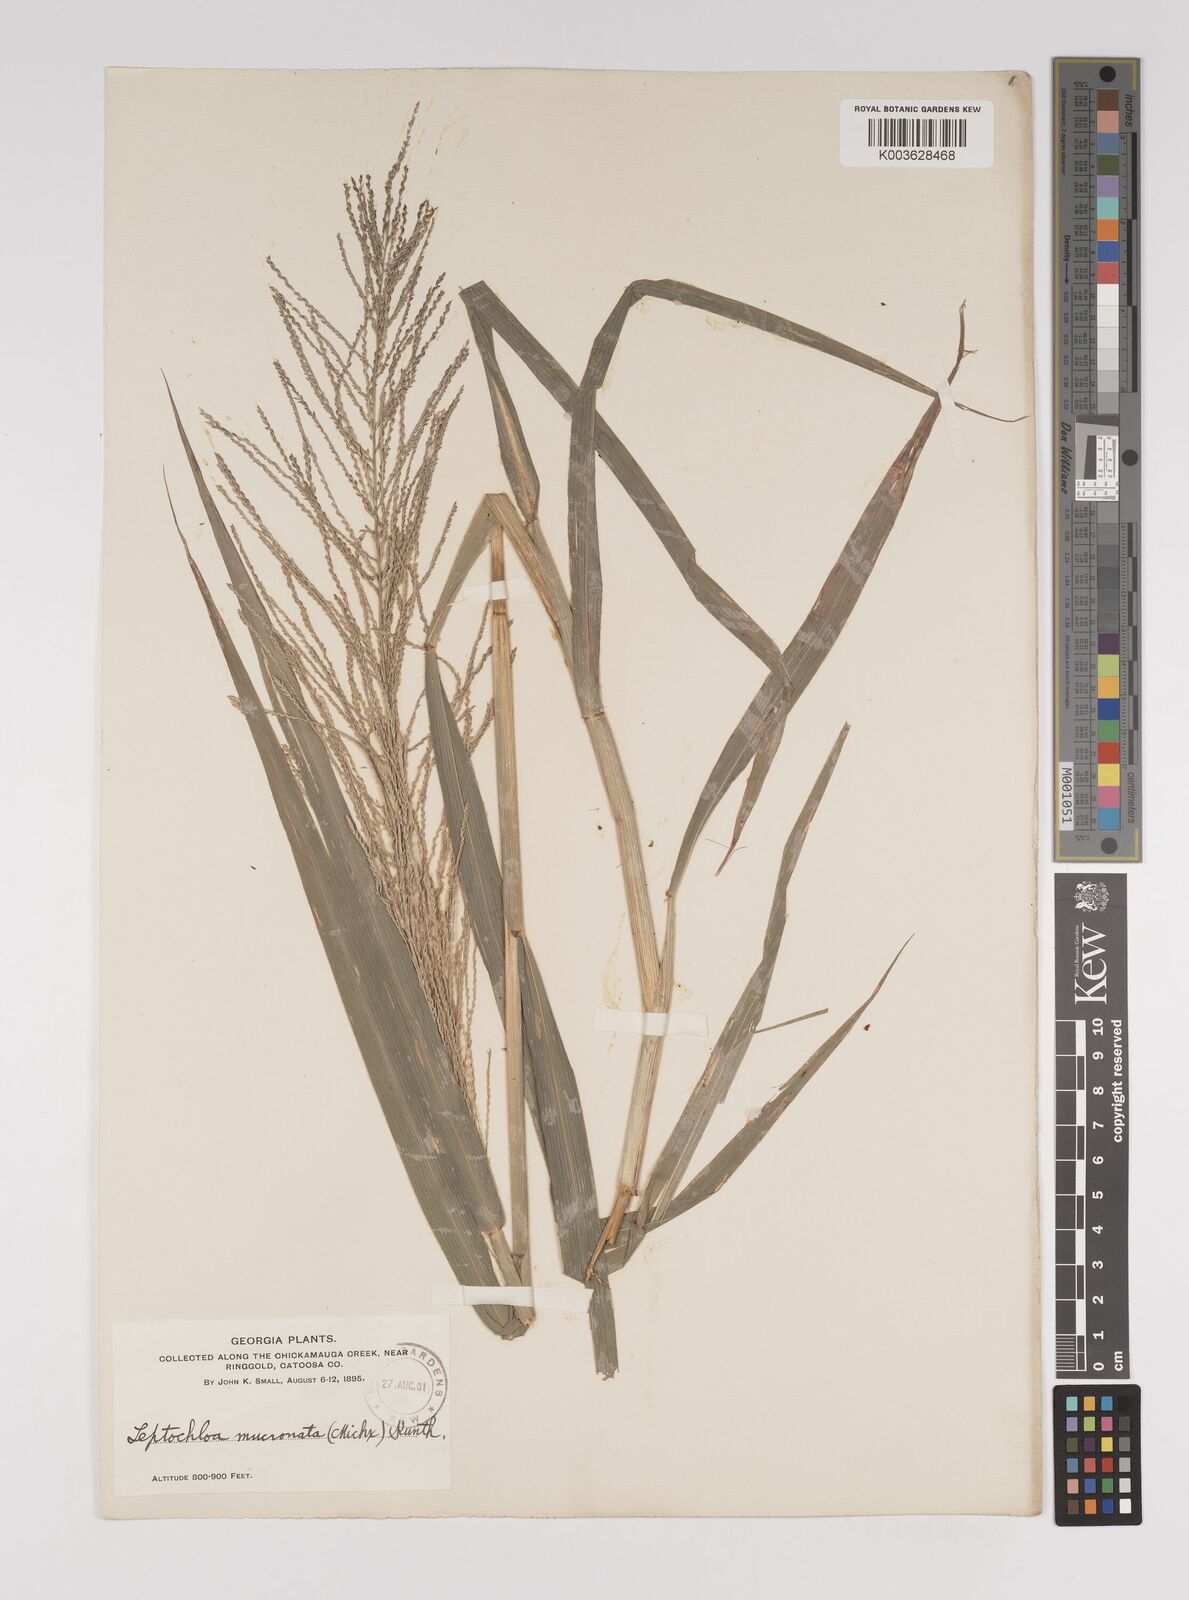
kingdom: Plantae
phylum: Tracheophyta
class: Liliopsida
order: Poales
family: Poaceae
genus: Leptochloa
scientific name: Leptochloa panicea
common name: Mucronate sprangletop
